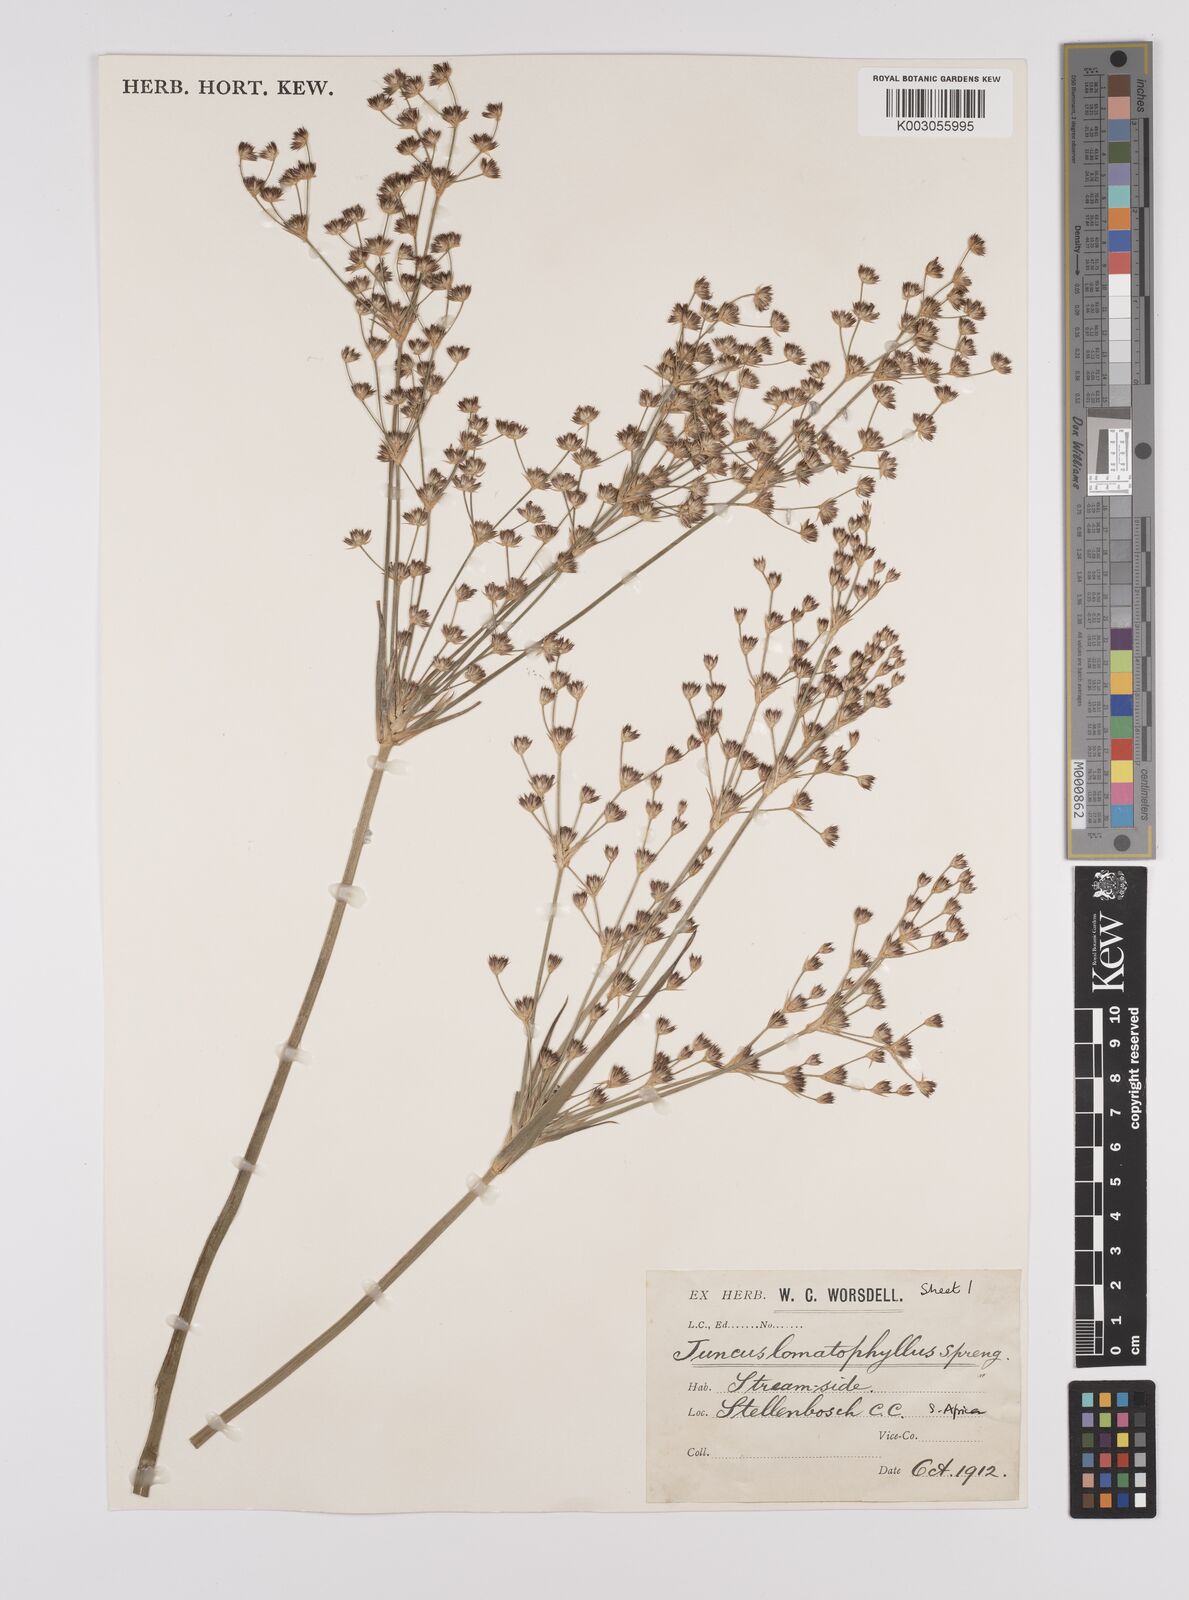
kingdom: Plantae
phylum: Tracheophyta
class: Liliopsida
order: Poales
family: Juncaceae
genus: Juncus
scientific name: Juncus lomatophyllus
